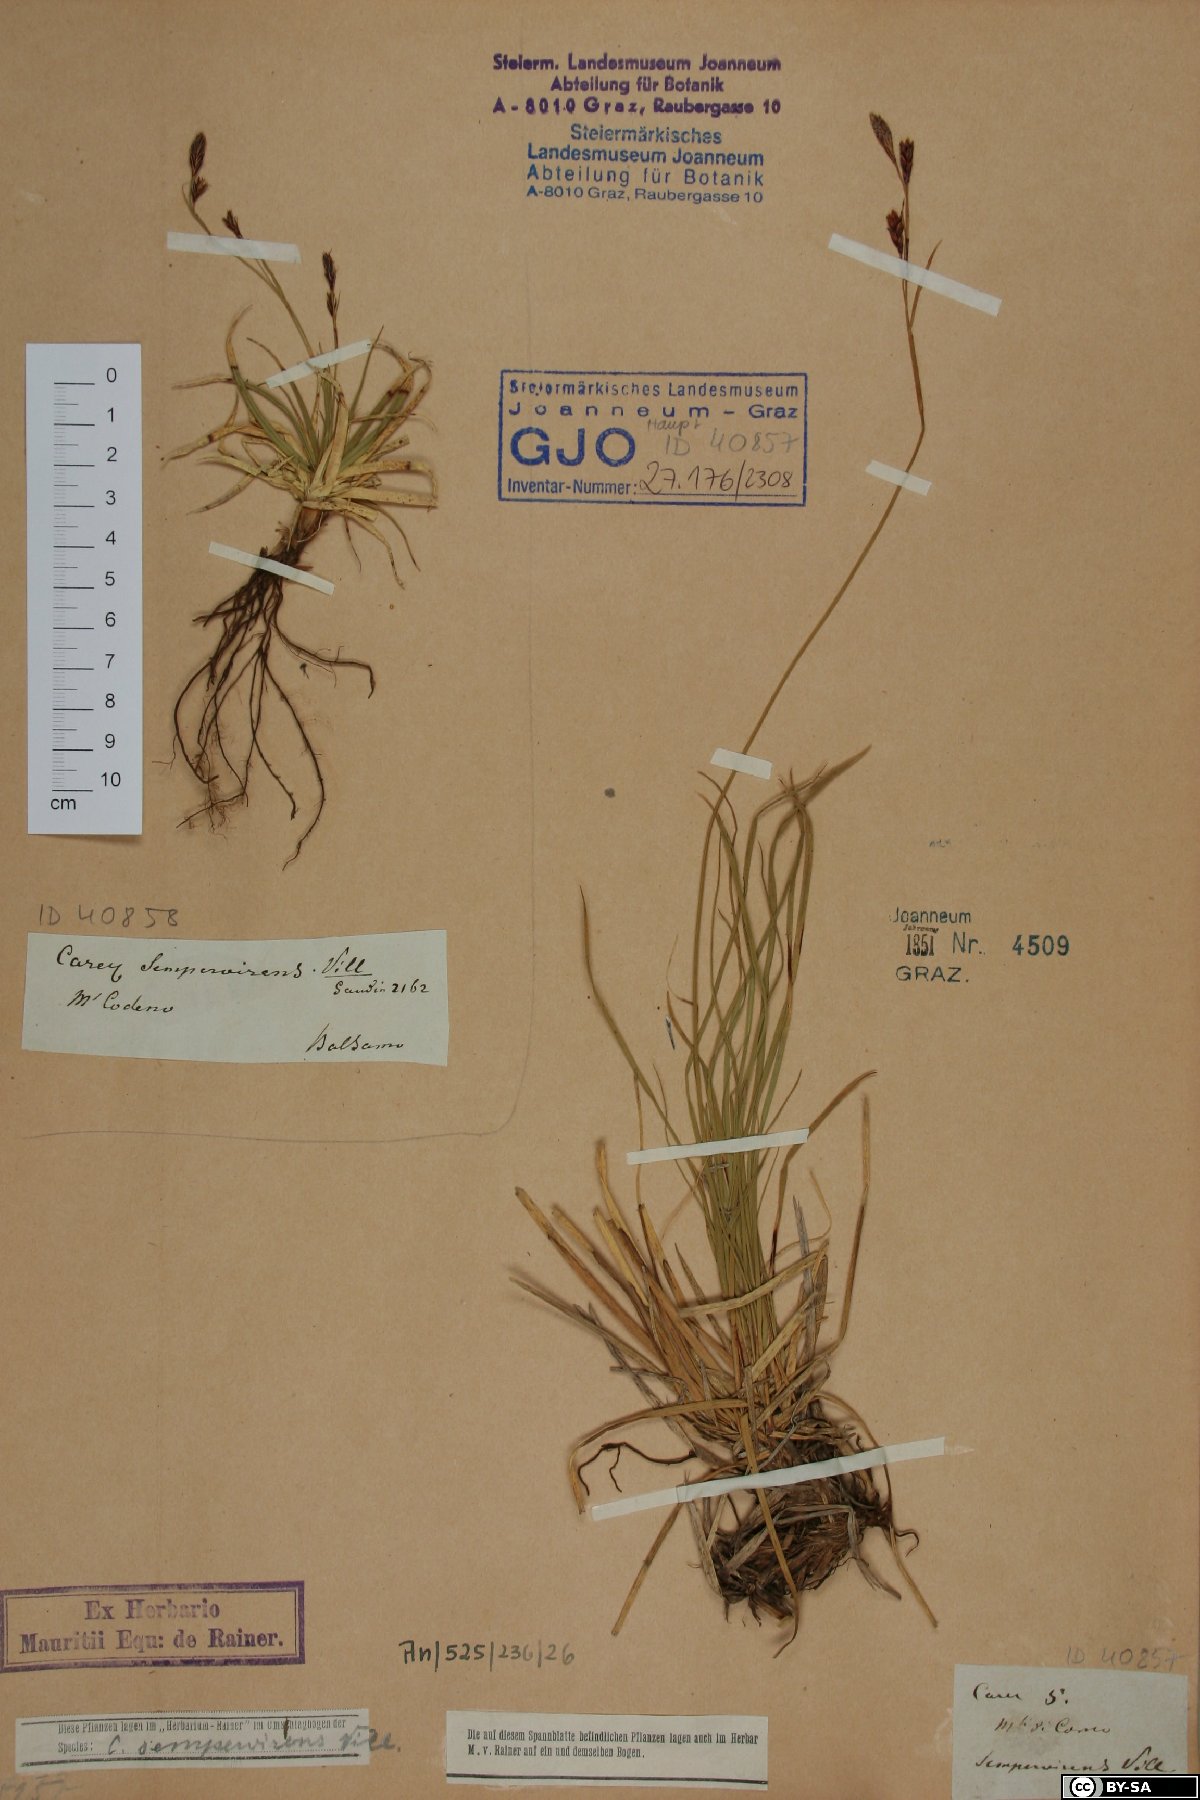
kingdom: Plantae
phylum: Tracheophyta
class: Liliopsida
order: Poales
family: Cyperaceae
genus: Carex
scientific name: Carex sempervirens
